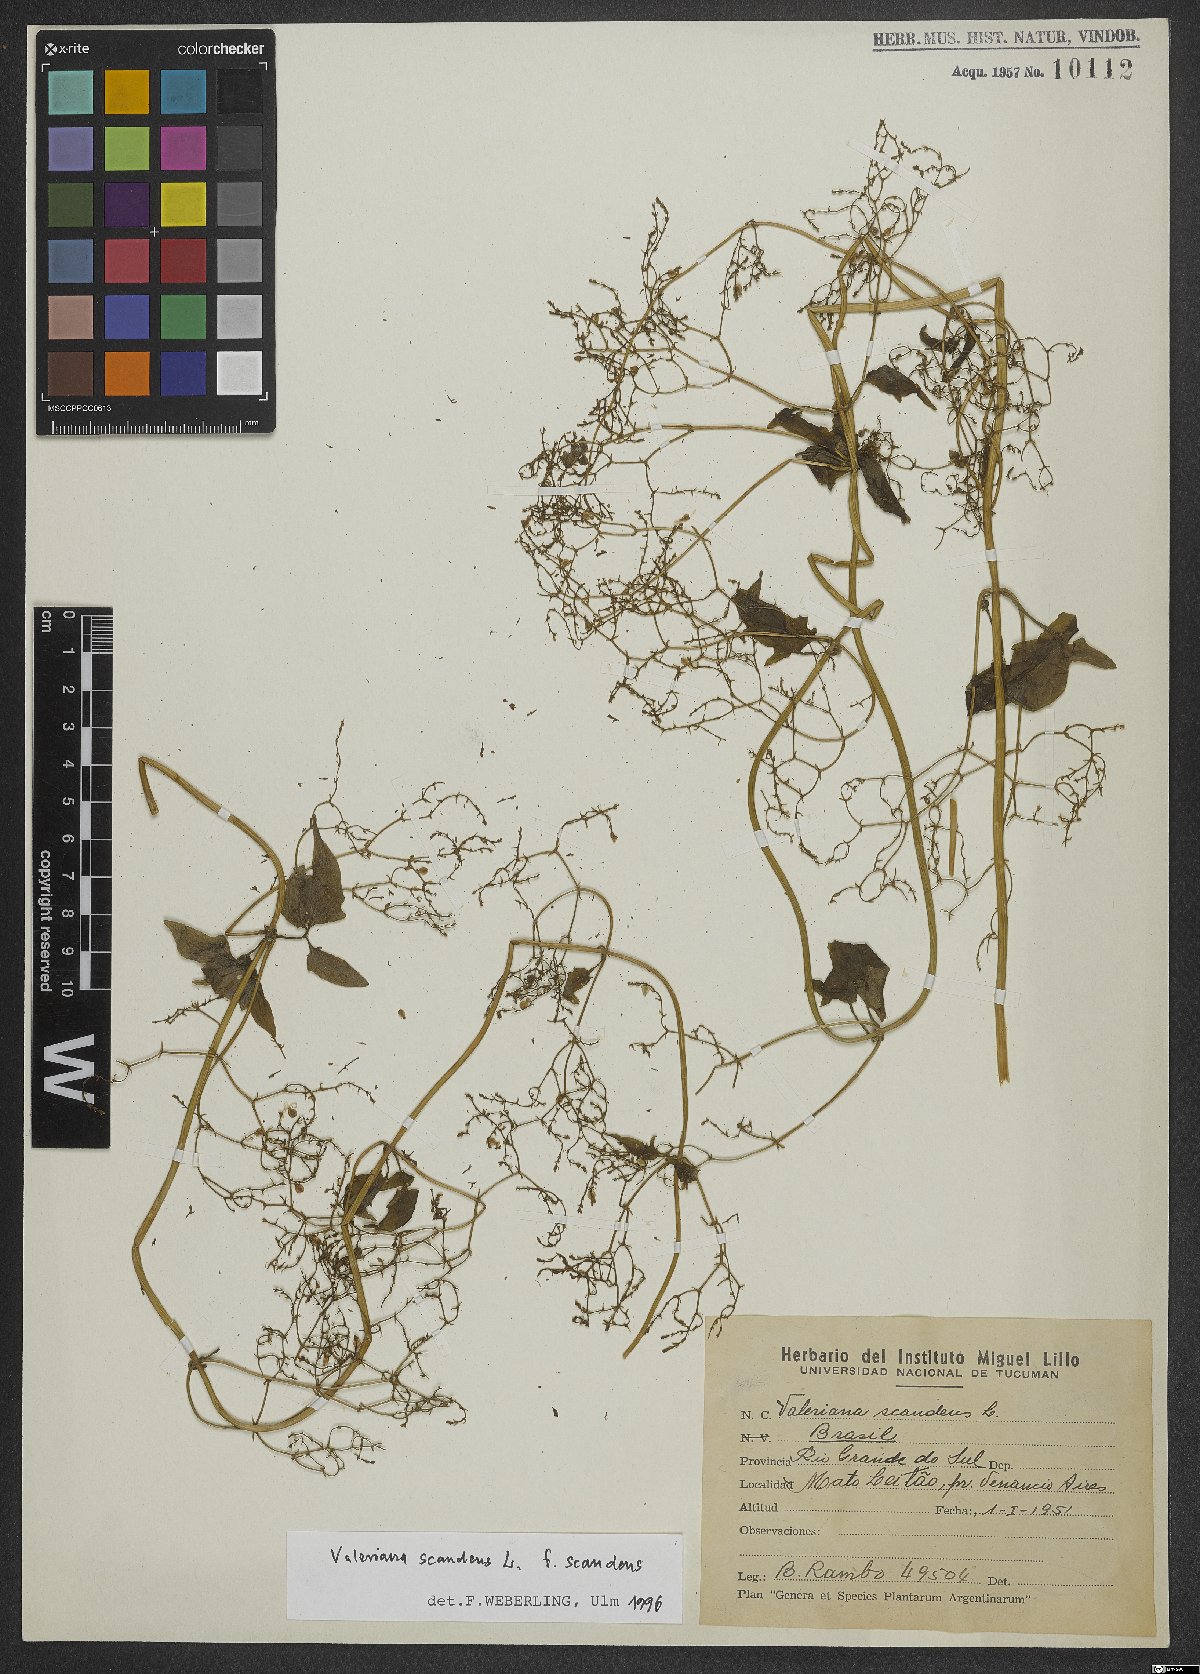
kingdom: Plantae
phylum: Tracheophyta
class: Magnoliopsida
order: Dipsacales
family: Caprifoliaceae
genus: Valeriana
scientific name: Valeriana scandens
